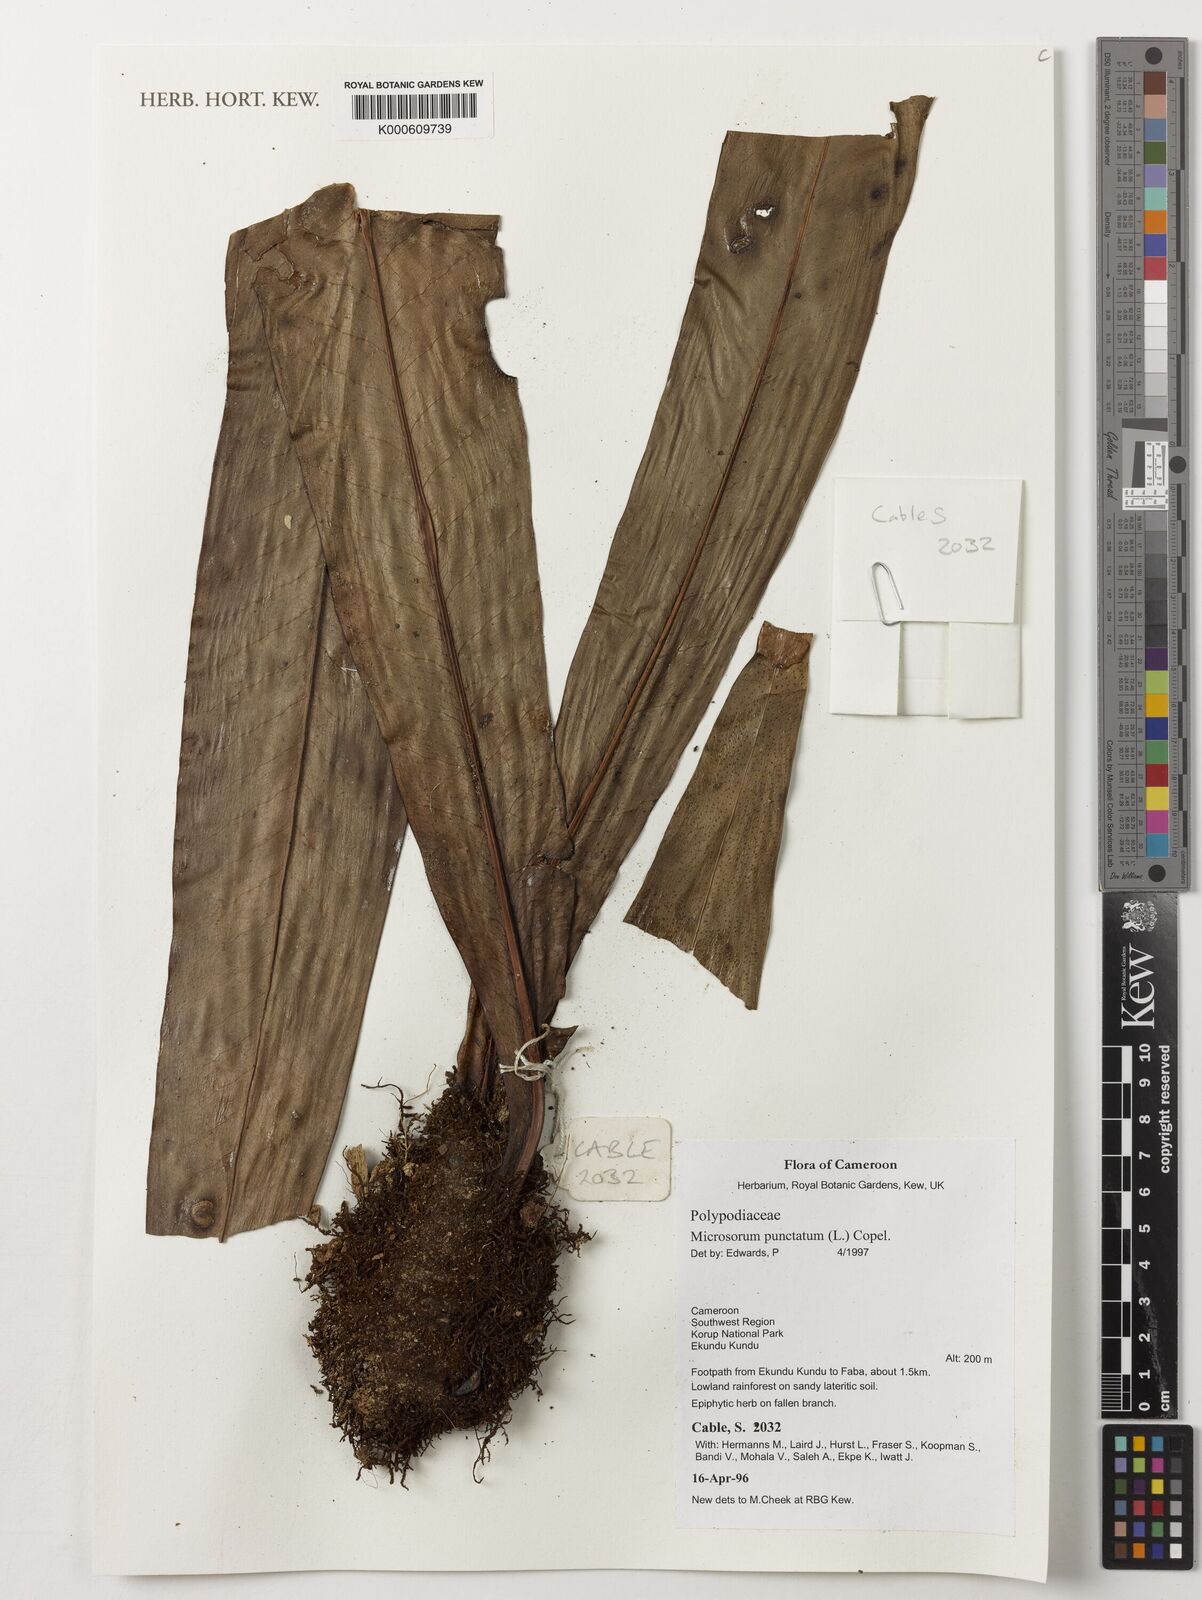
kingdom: Plantae
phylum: Tracheophyta
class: Polypodiopsida
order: Polypodiales
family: Polypodiaceae
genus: Microsorum
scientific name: Microsorum punctatum
